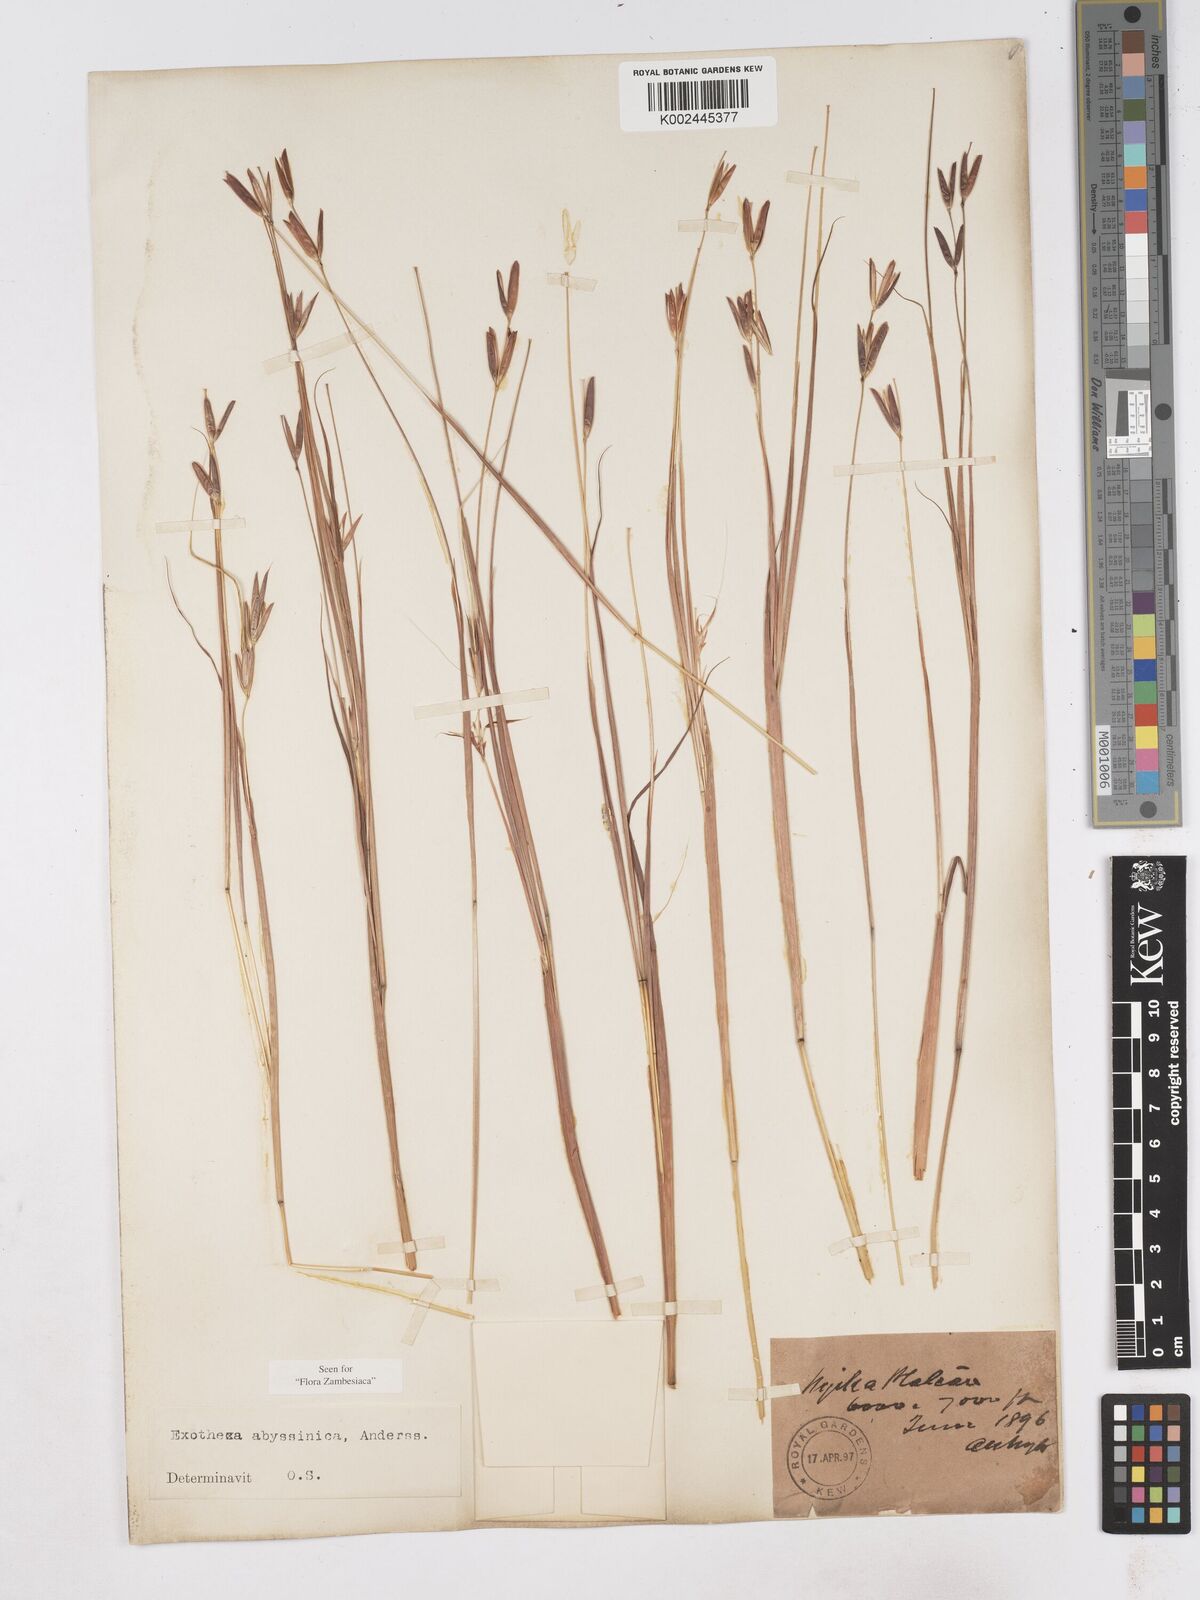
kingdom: Plantae
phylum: Tracheophyta
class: Liliopsida
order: Poales
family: Poaceae
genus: Exotheca
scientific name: Exotheca abyssinica
